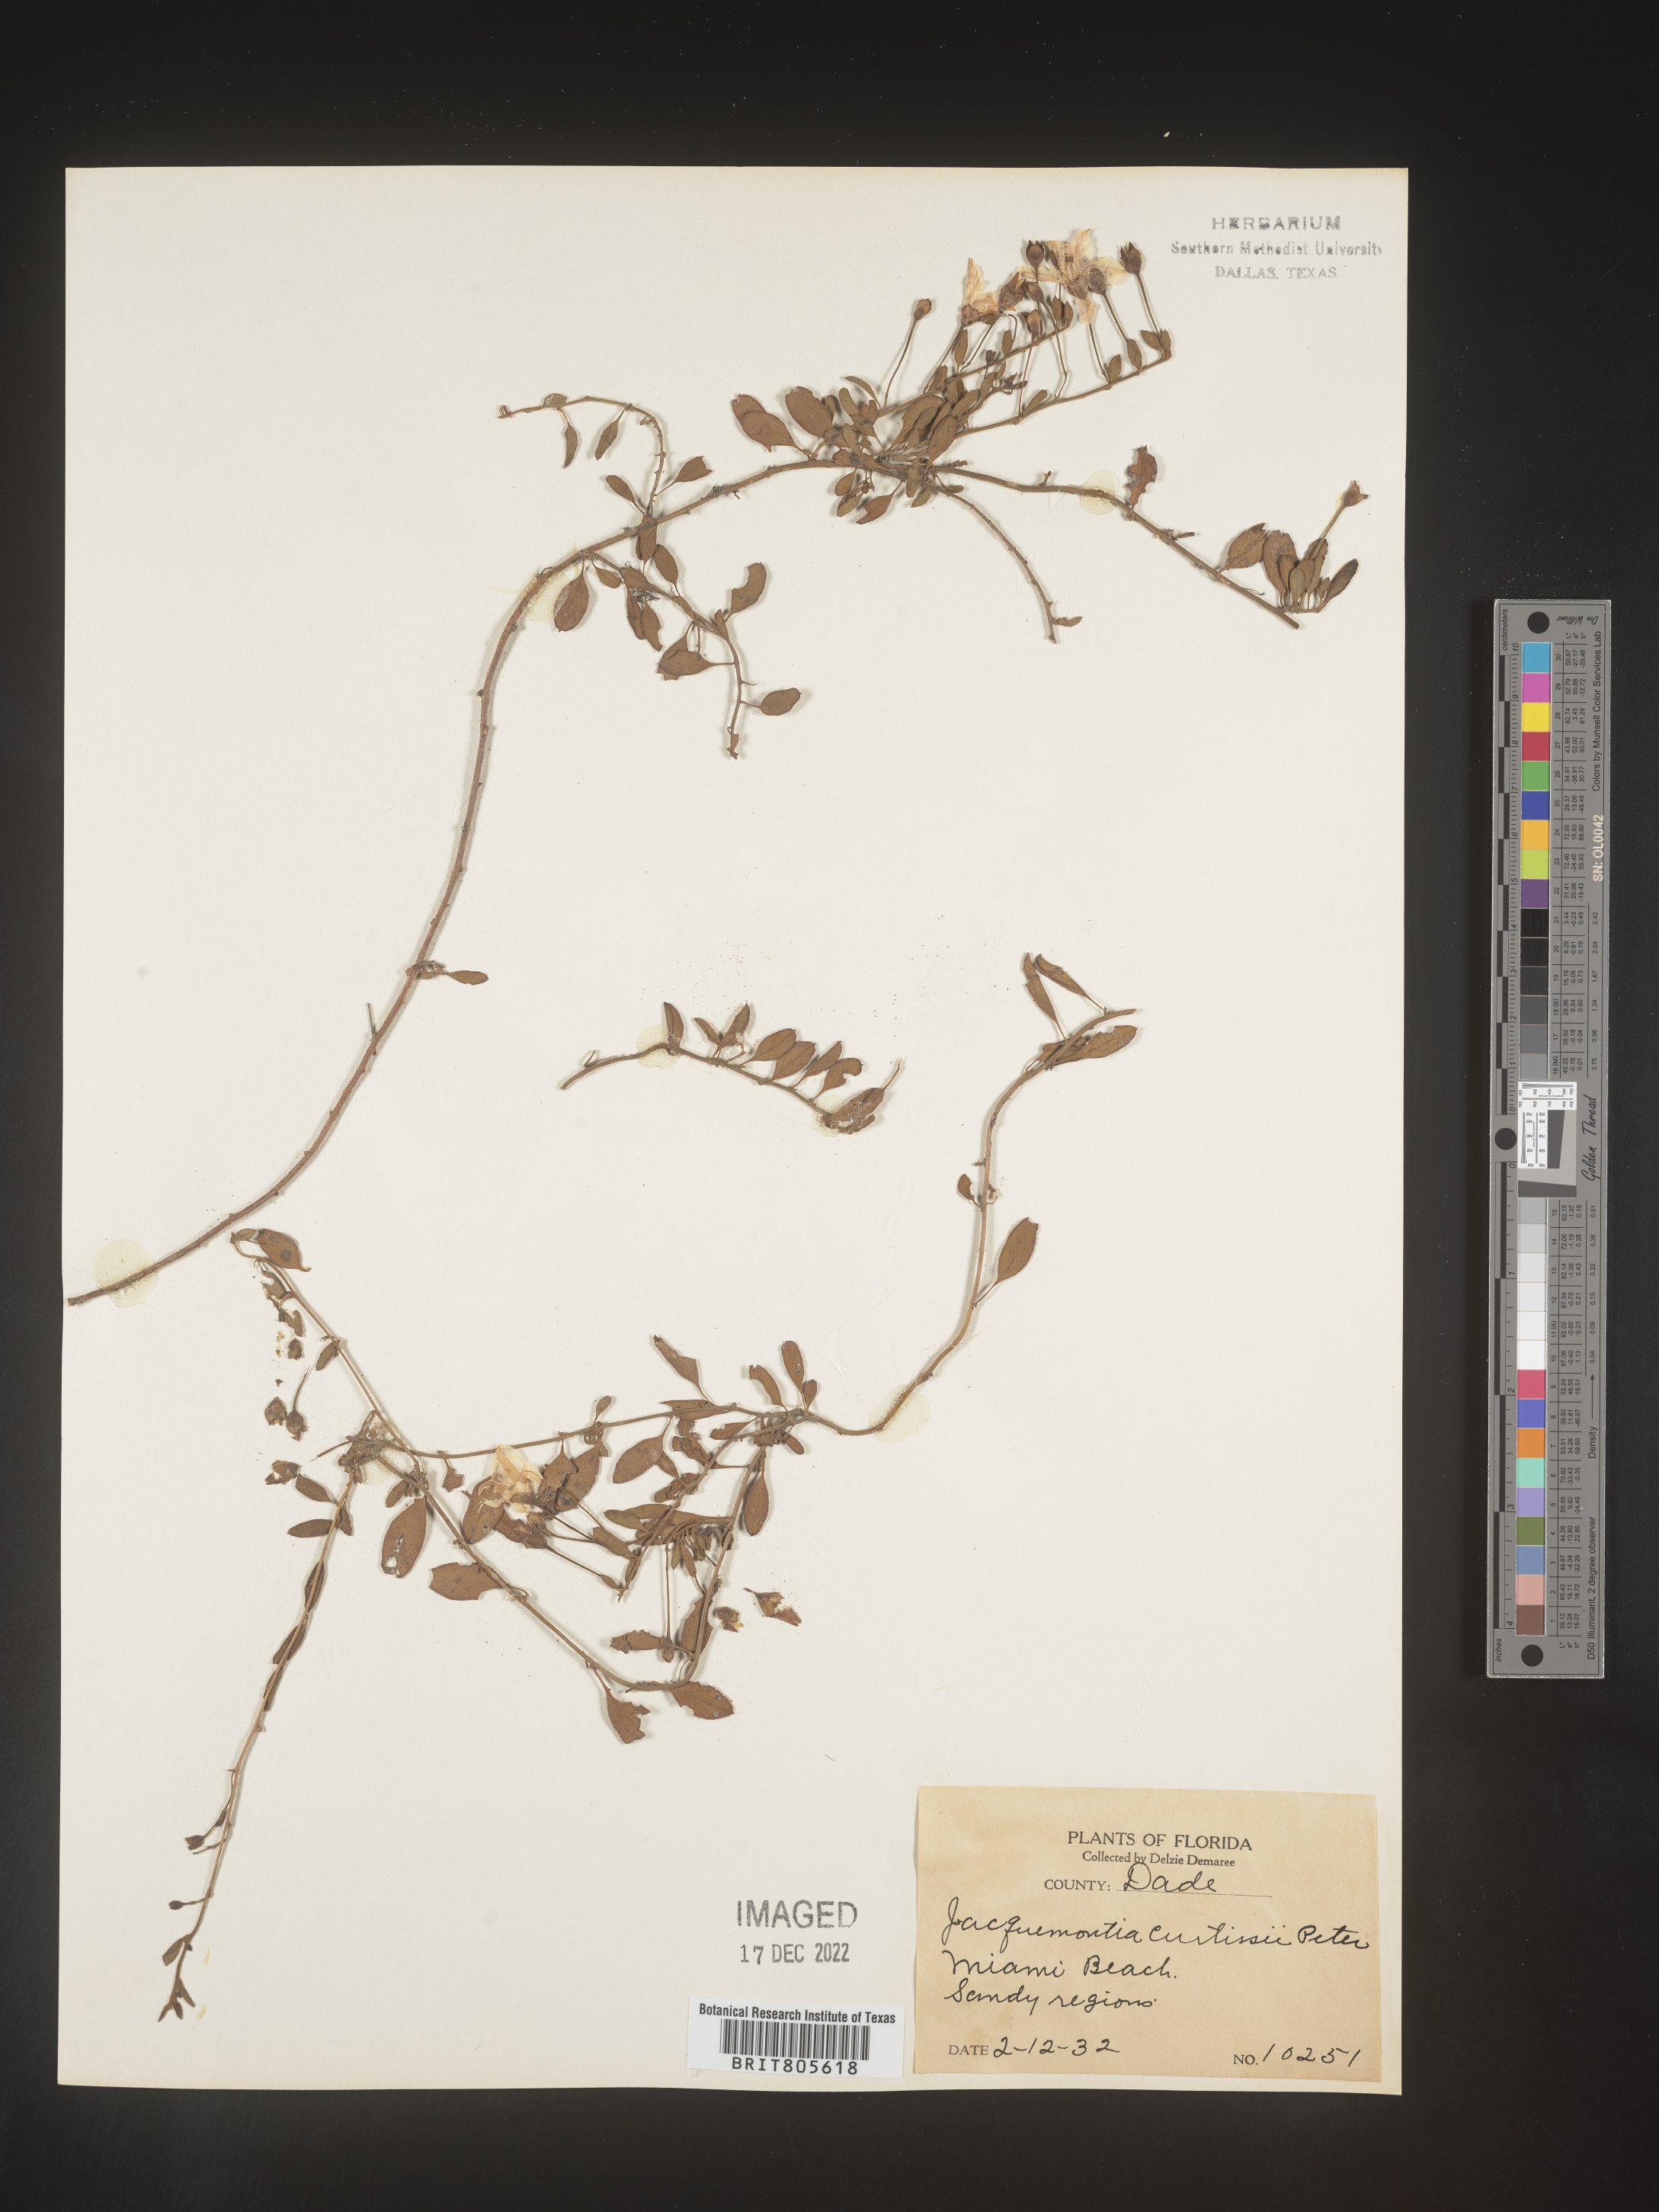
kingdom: Plantae
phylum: Tracheophyta
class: Magnoliopsida
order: Solanales
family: Convolvulaceae
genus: Jacquemontia
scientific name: Jacquemontia
